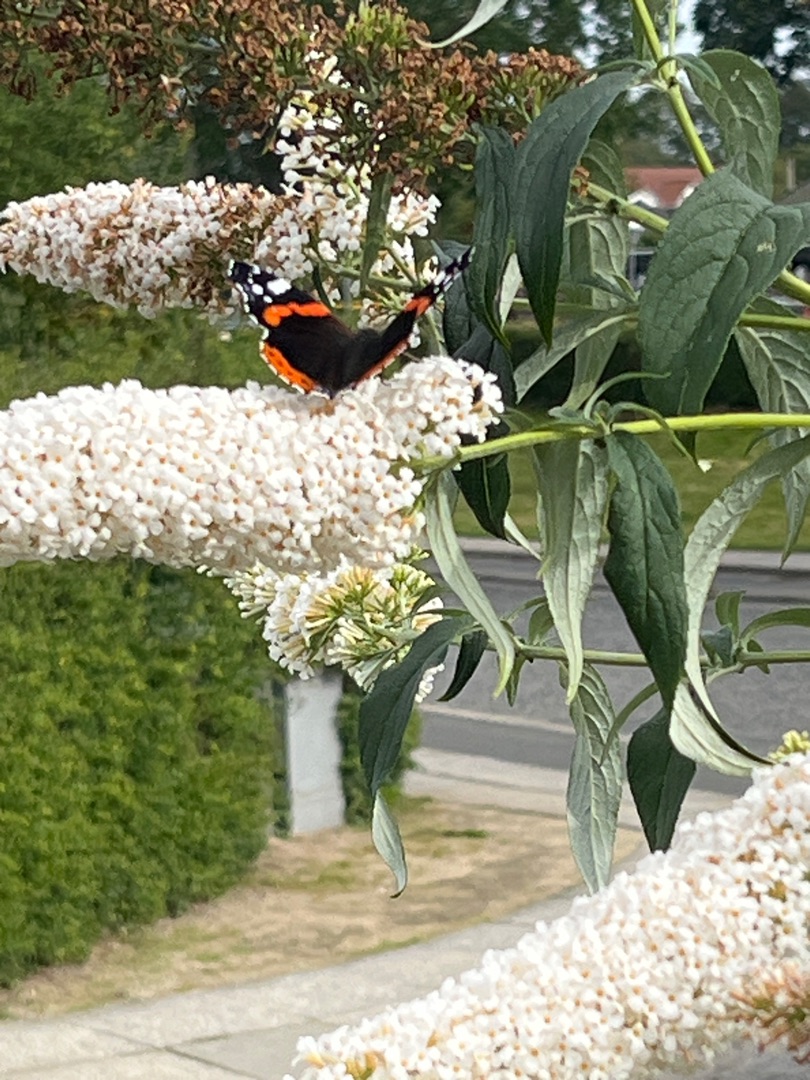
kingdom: Animalia
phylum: Arthropoda
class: Insecta
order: Lepidoptera
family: Nymphalidae
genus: Vanessa
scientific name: Vanessa atalanta
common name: Admiral
